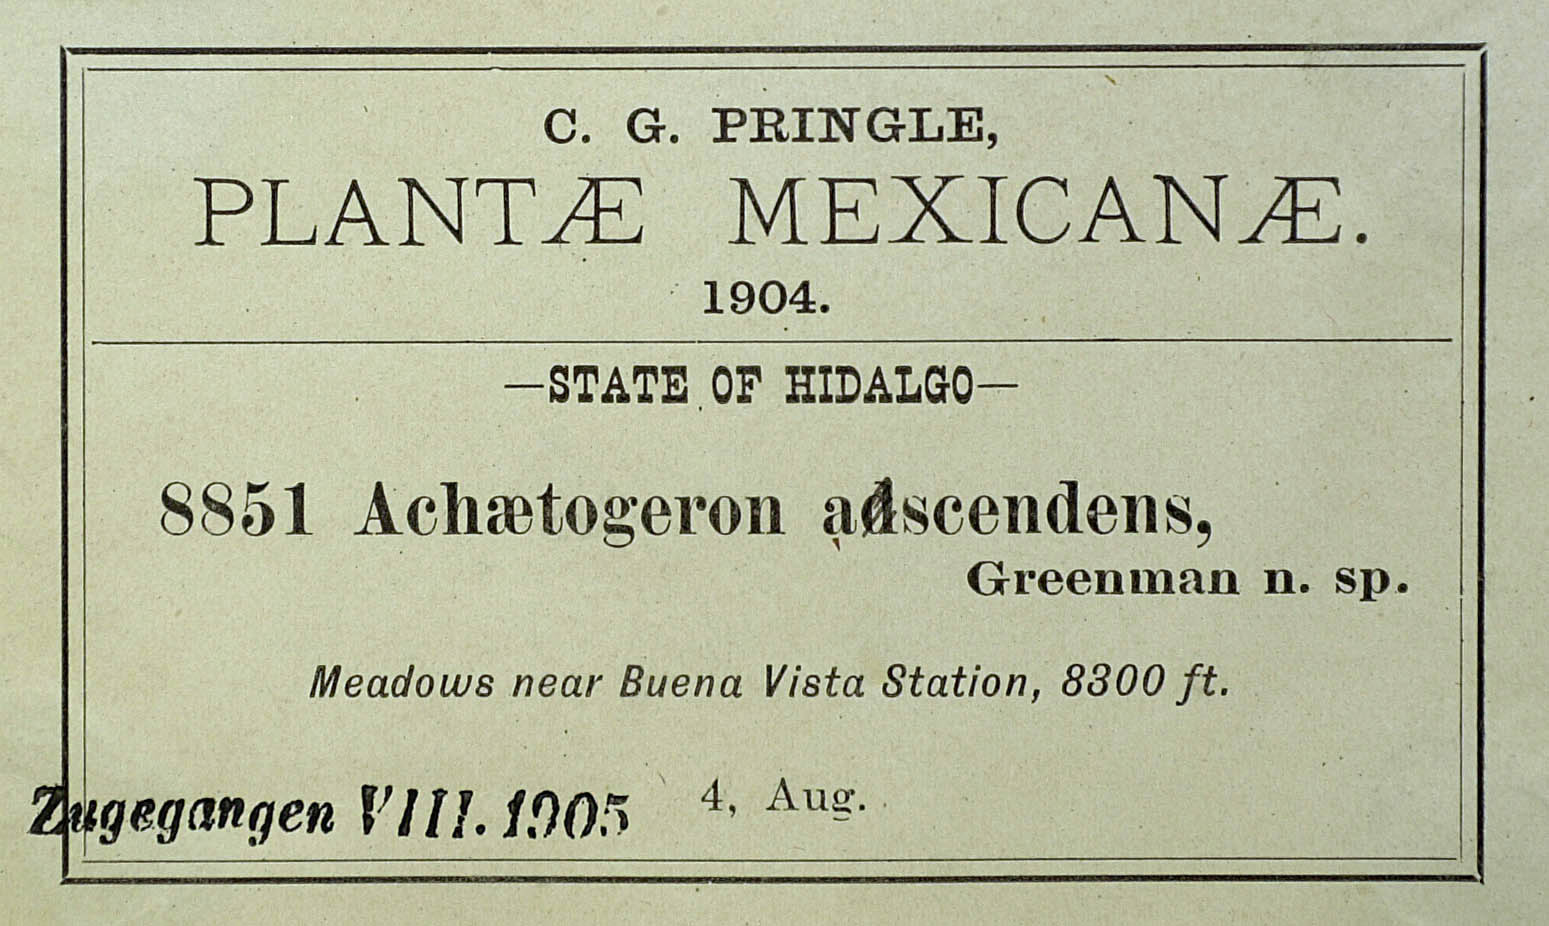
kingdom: Plantae
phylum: Tracheophyta
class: Magnoliopsida
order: Asterales
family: Asteraceae
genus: Archaetogeron
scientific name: Archaetogeron
